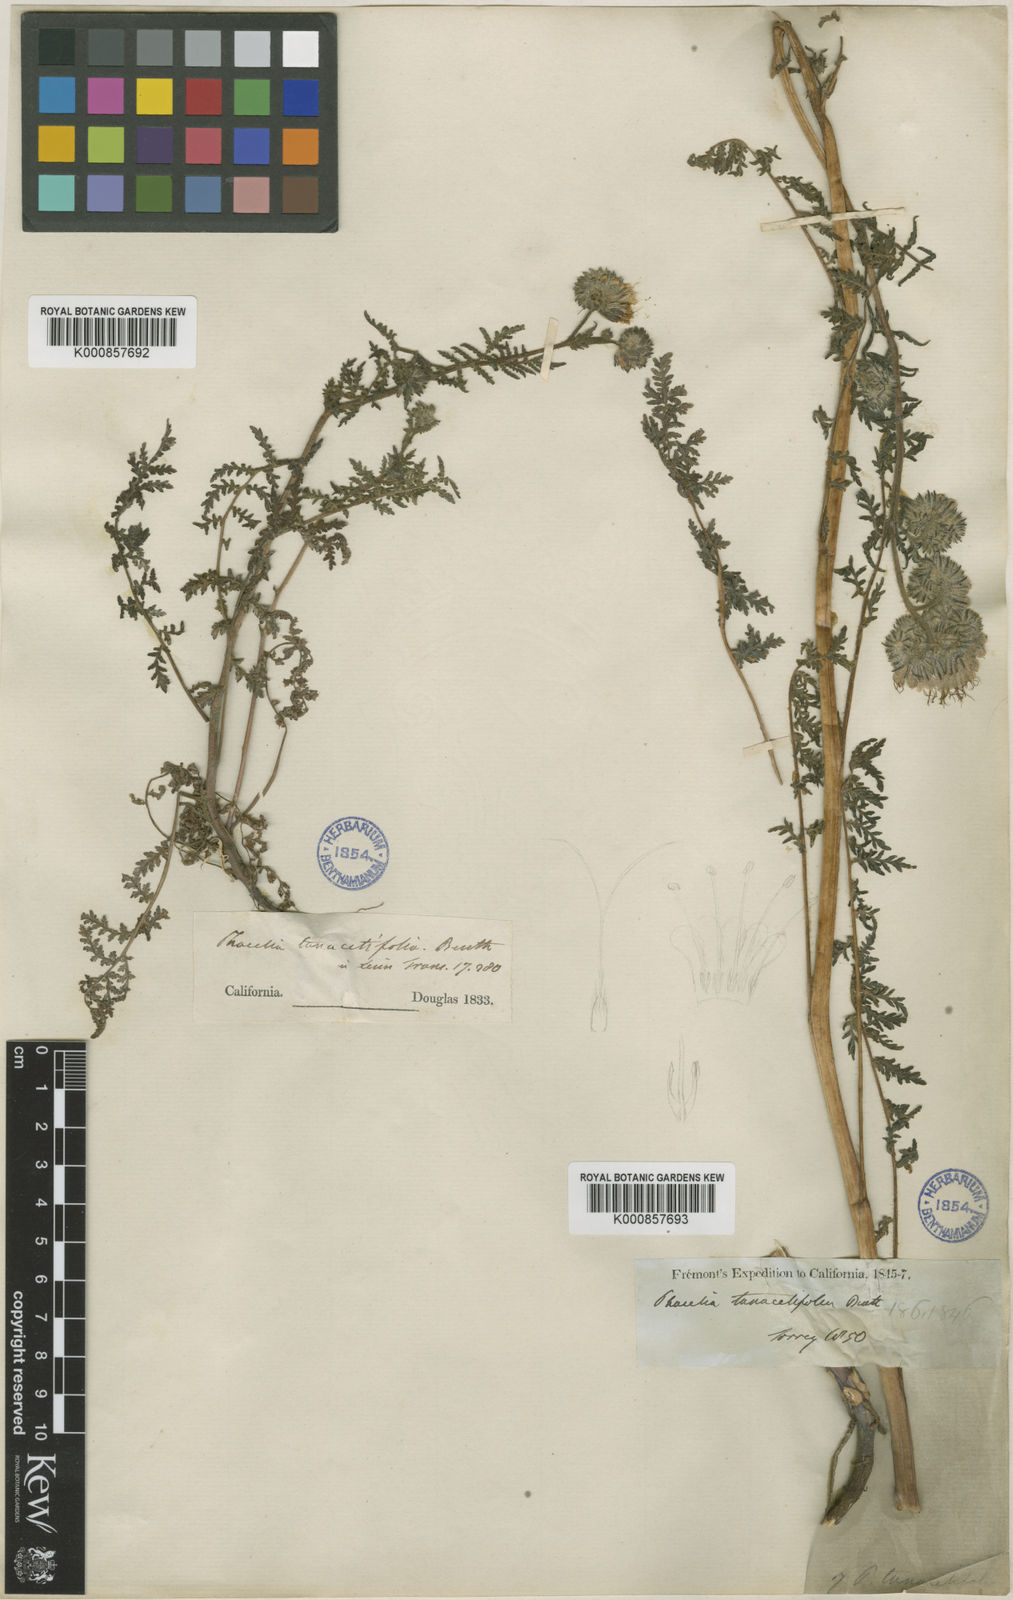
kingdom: Plantae
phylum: Tracheophyta
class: Magnoliopsida
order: Boraginales
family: Hydrophyllaceae
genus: Phacelia
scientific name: Phacelia tanacetifolia
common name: Phacelia
